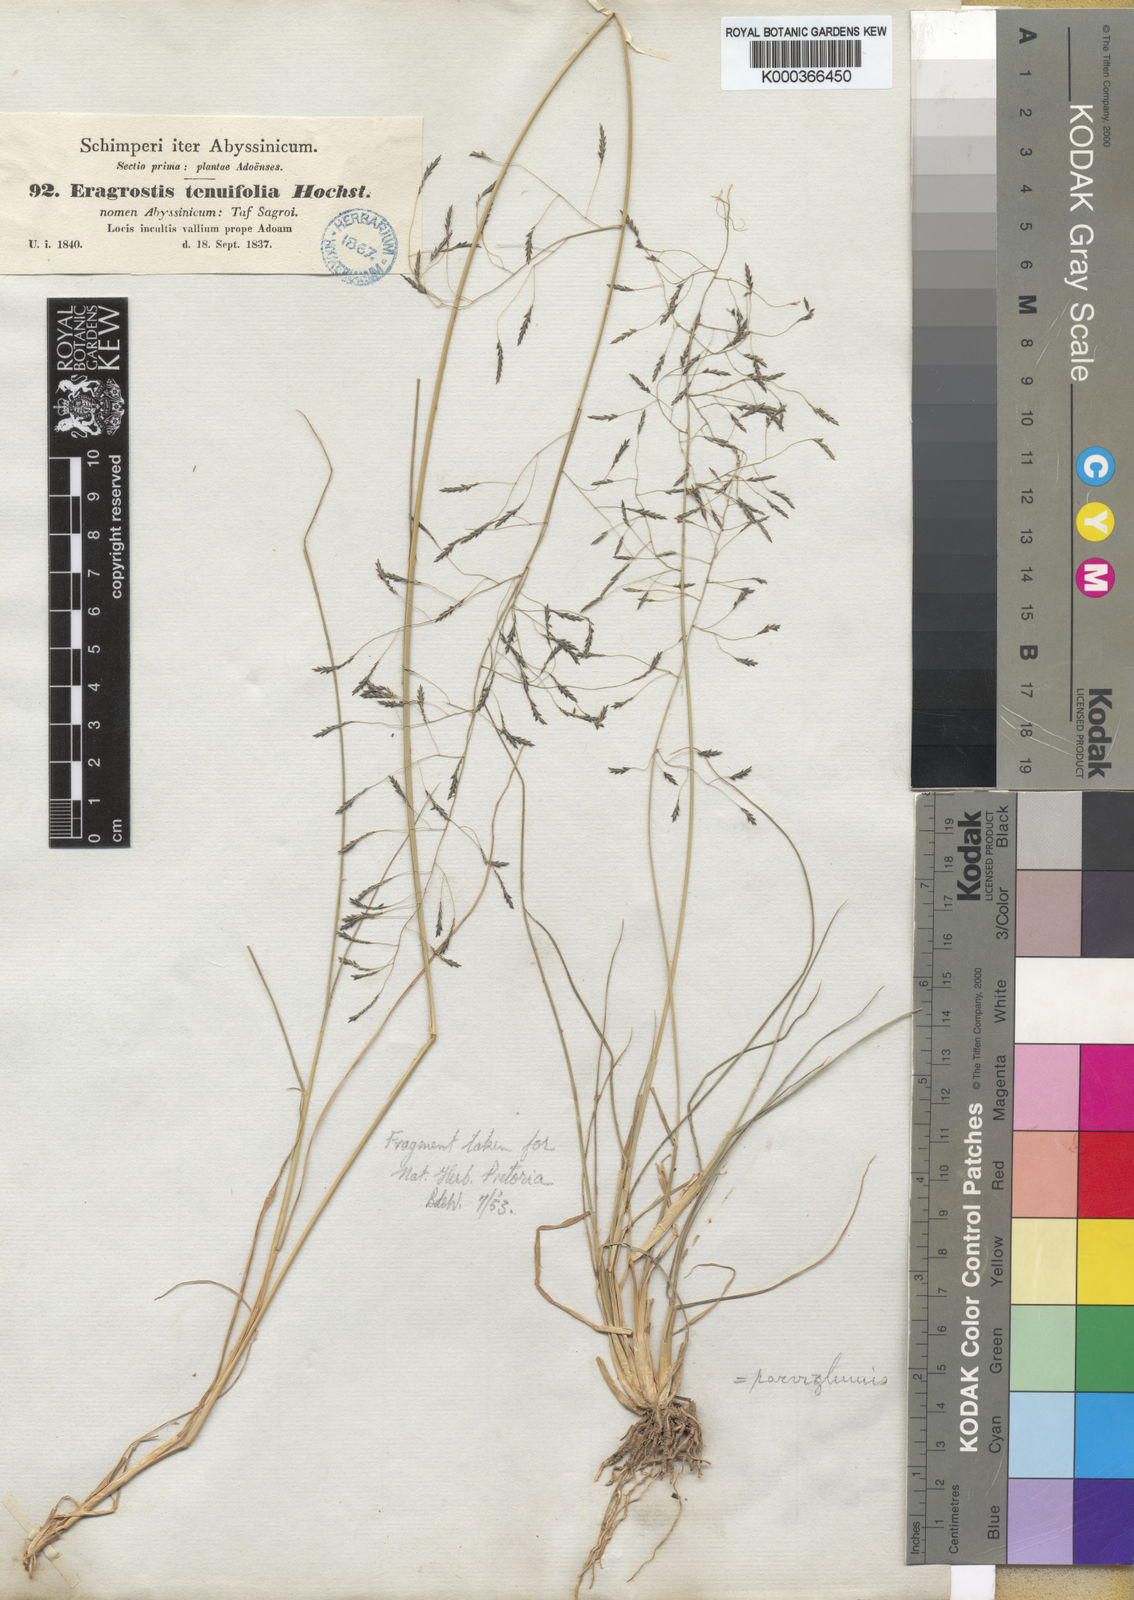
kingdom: Plantae
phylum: Tracheophyta
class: Liliopsida
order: Poales
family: Poaceae
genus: Eragrostis
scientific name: Eragrostis
